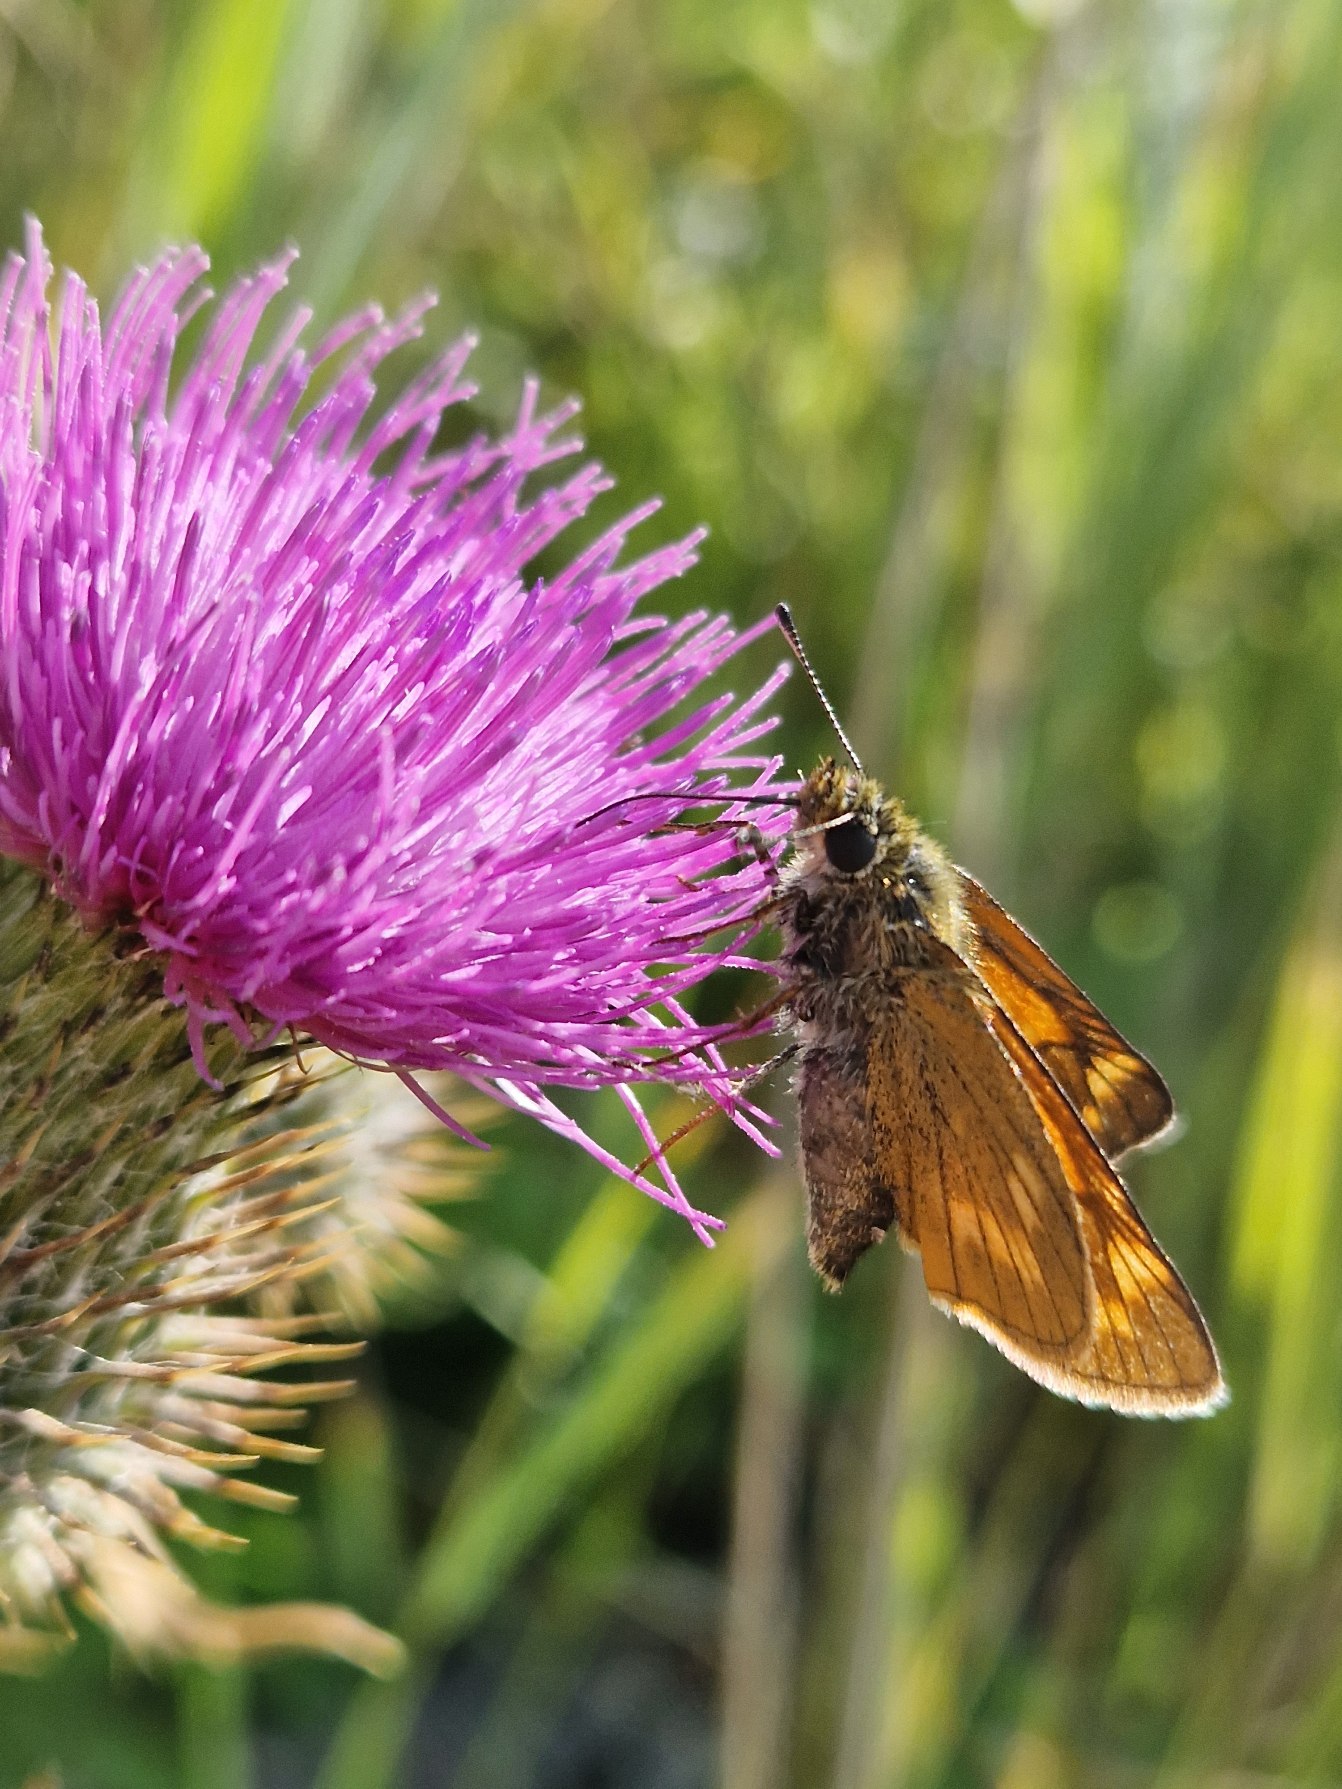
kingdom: Animalia
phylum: Arthropoda
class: Insecta
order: Lepidoptera
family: Hesperiidae
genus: Ochlodes
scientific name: Ochlodes venata
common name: Stor bredpande
